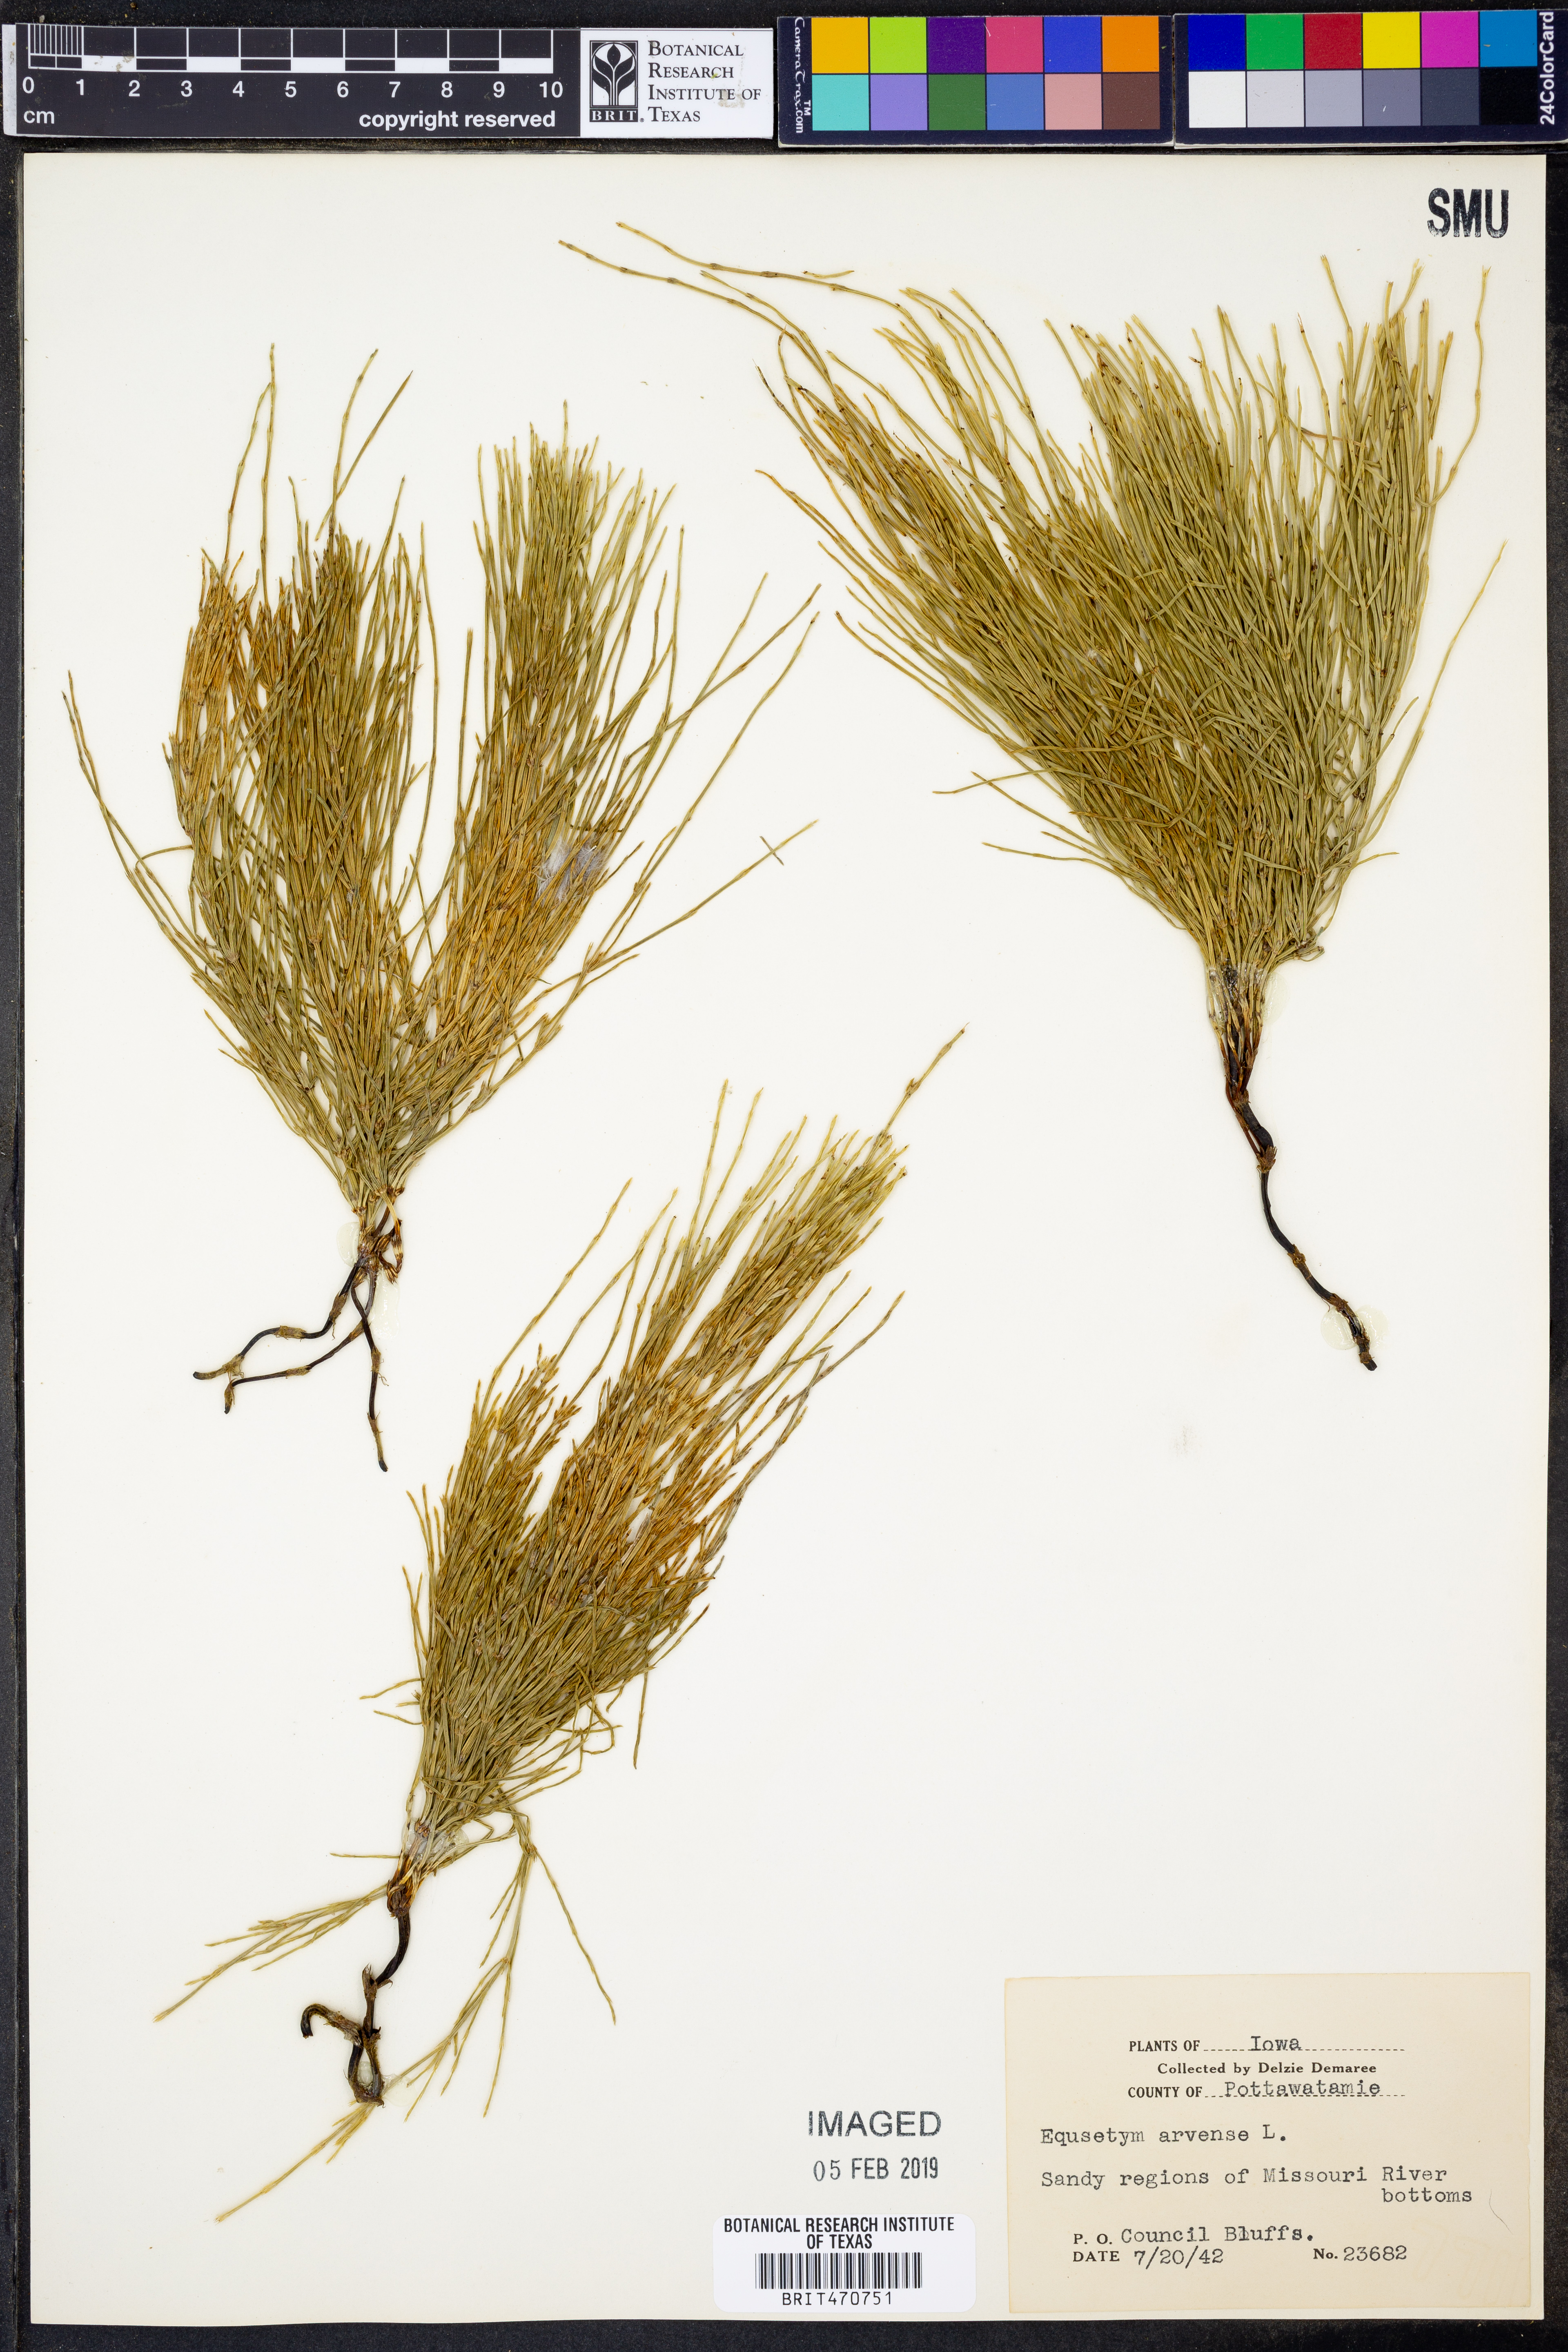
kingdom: Plantae
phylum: Tracheophyta
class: Polypodiopsida
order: Equisetales
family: Equisetaceae
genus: Equisetum
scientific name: Equisetum arvense
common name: Field horsetail
